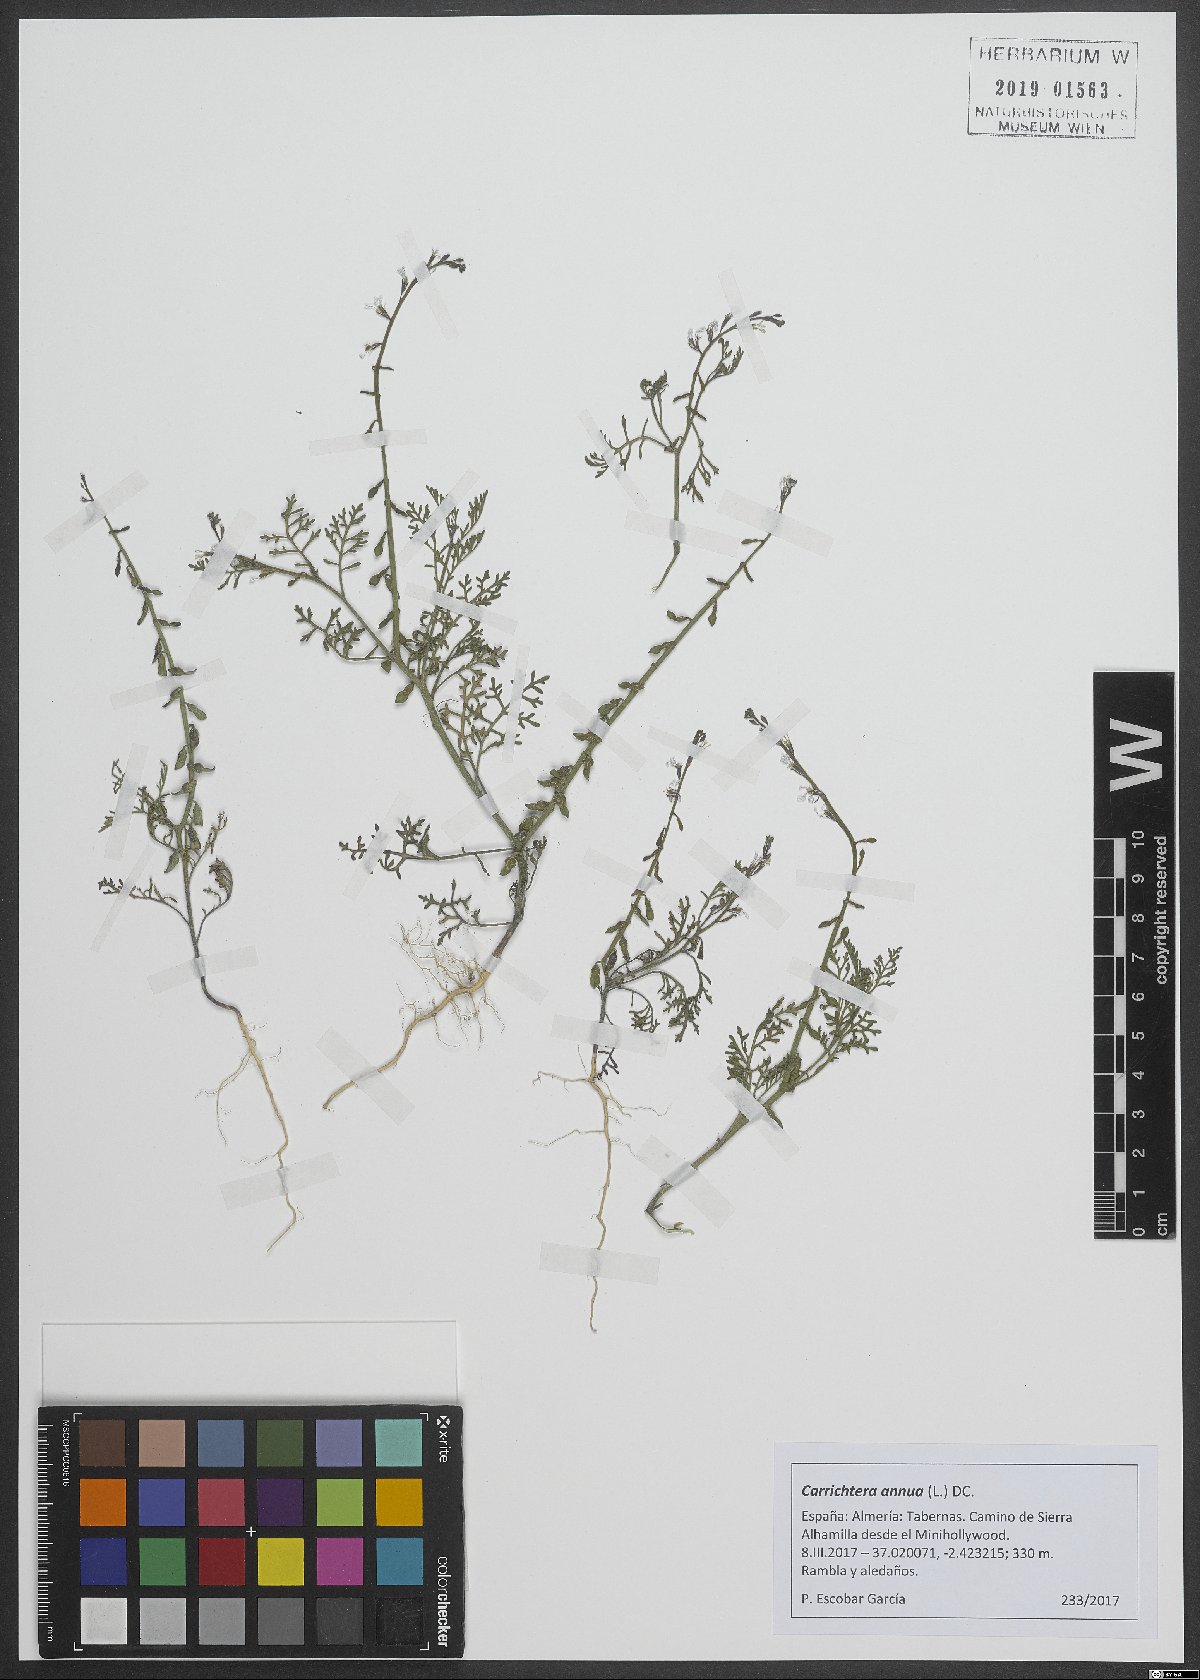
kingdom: Plantae
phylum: Tracheophyta
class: Magnoliopsida
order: Brassicales
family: Brassicaceae
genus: Carrichtera
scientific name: Carrichtera annua
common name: Cress rocket
